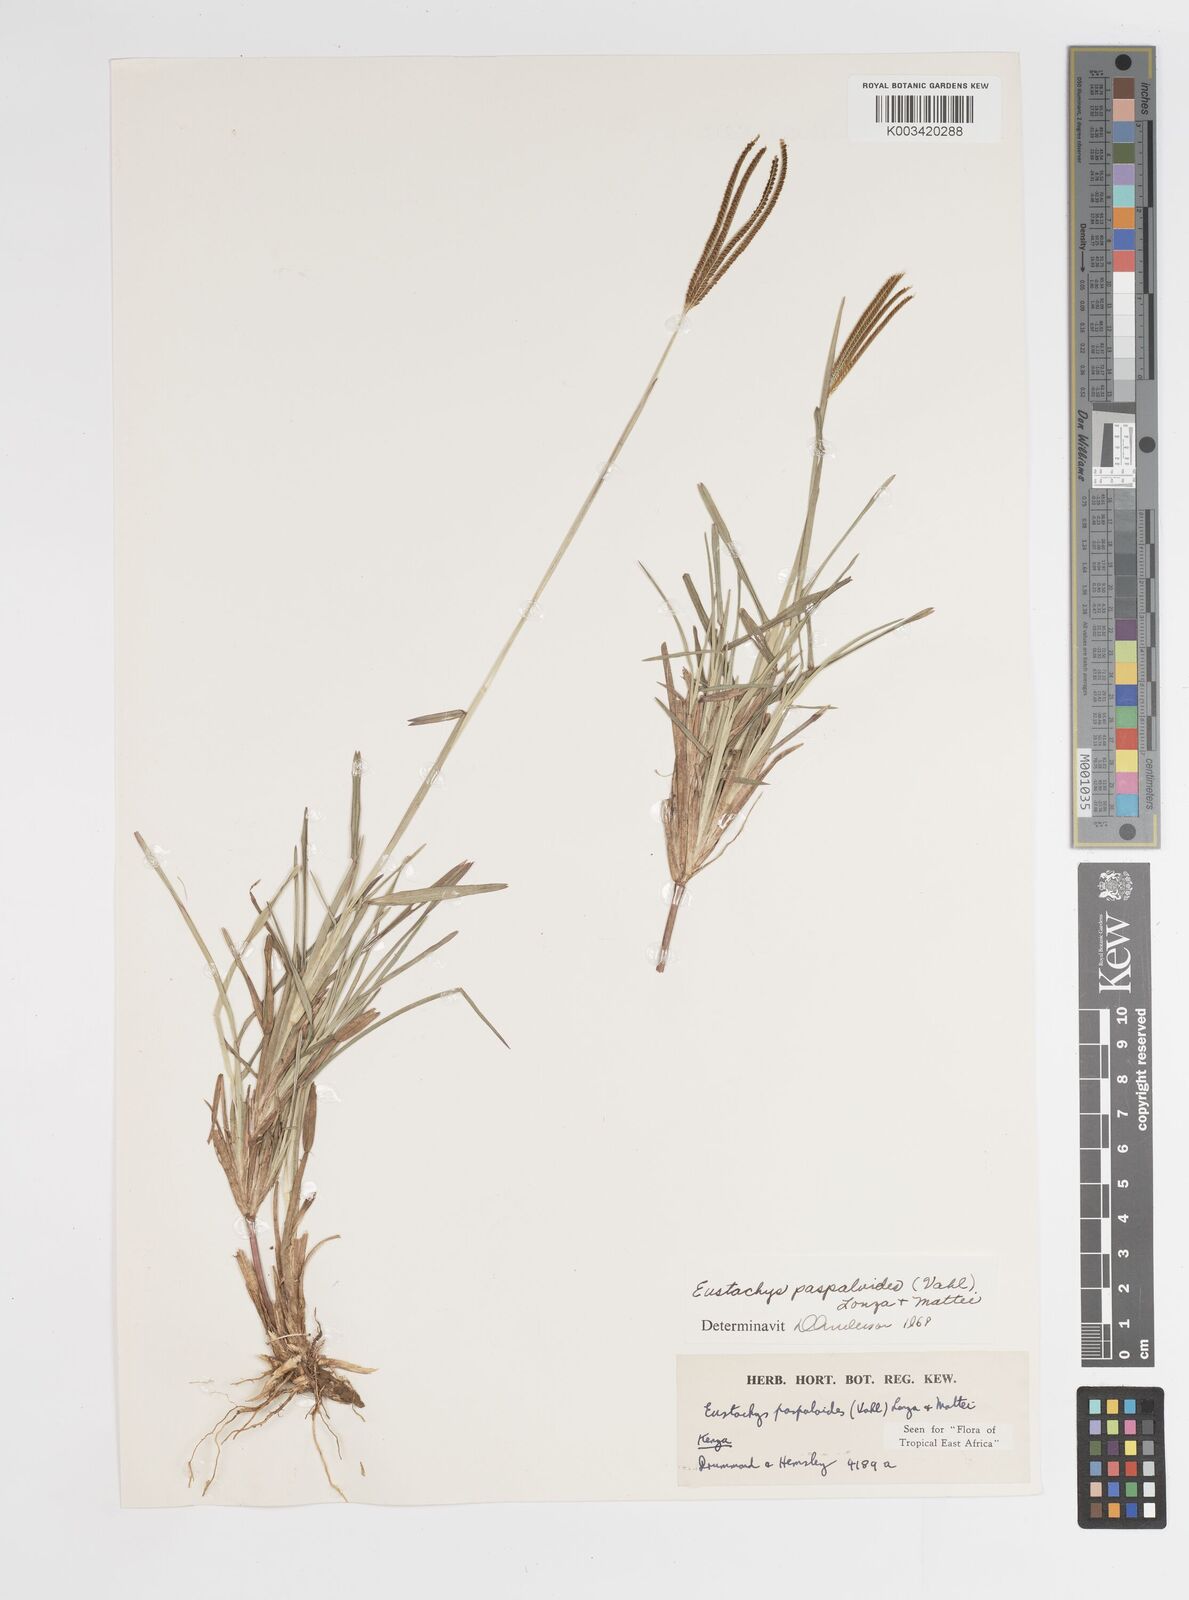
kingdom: Plantae
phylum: Tracheophyta
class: Liliopsida
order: Poales
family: Poaceae
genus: Eustachys
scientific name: Eustachys paspaloides
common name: Caribbean fingergrass
